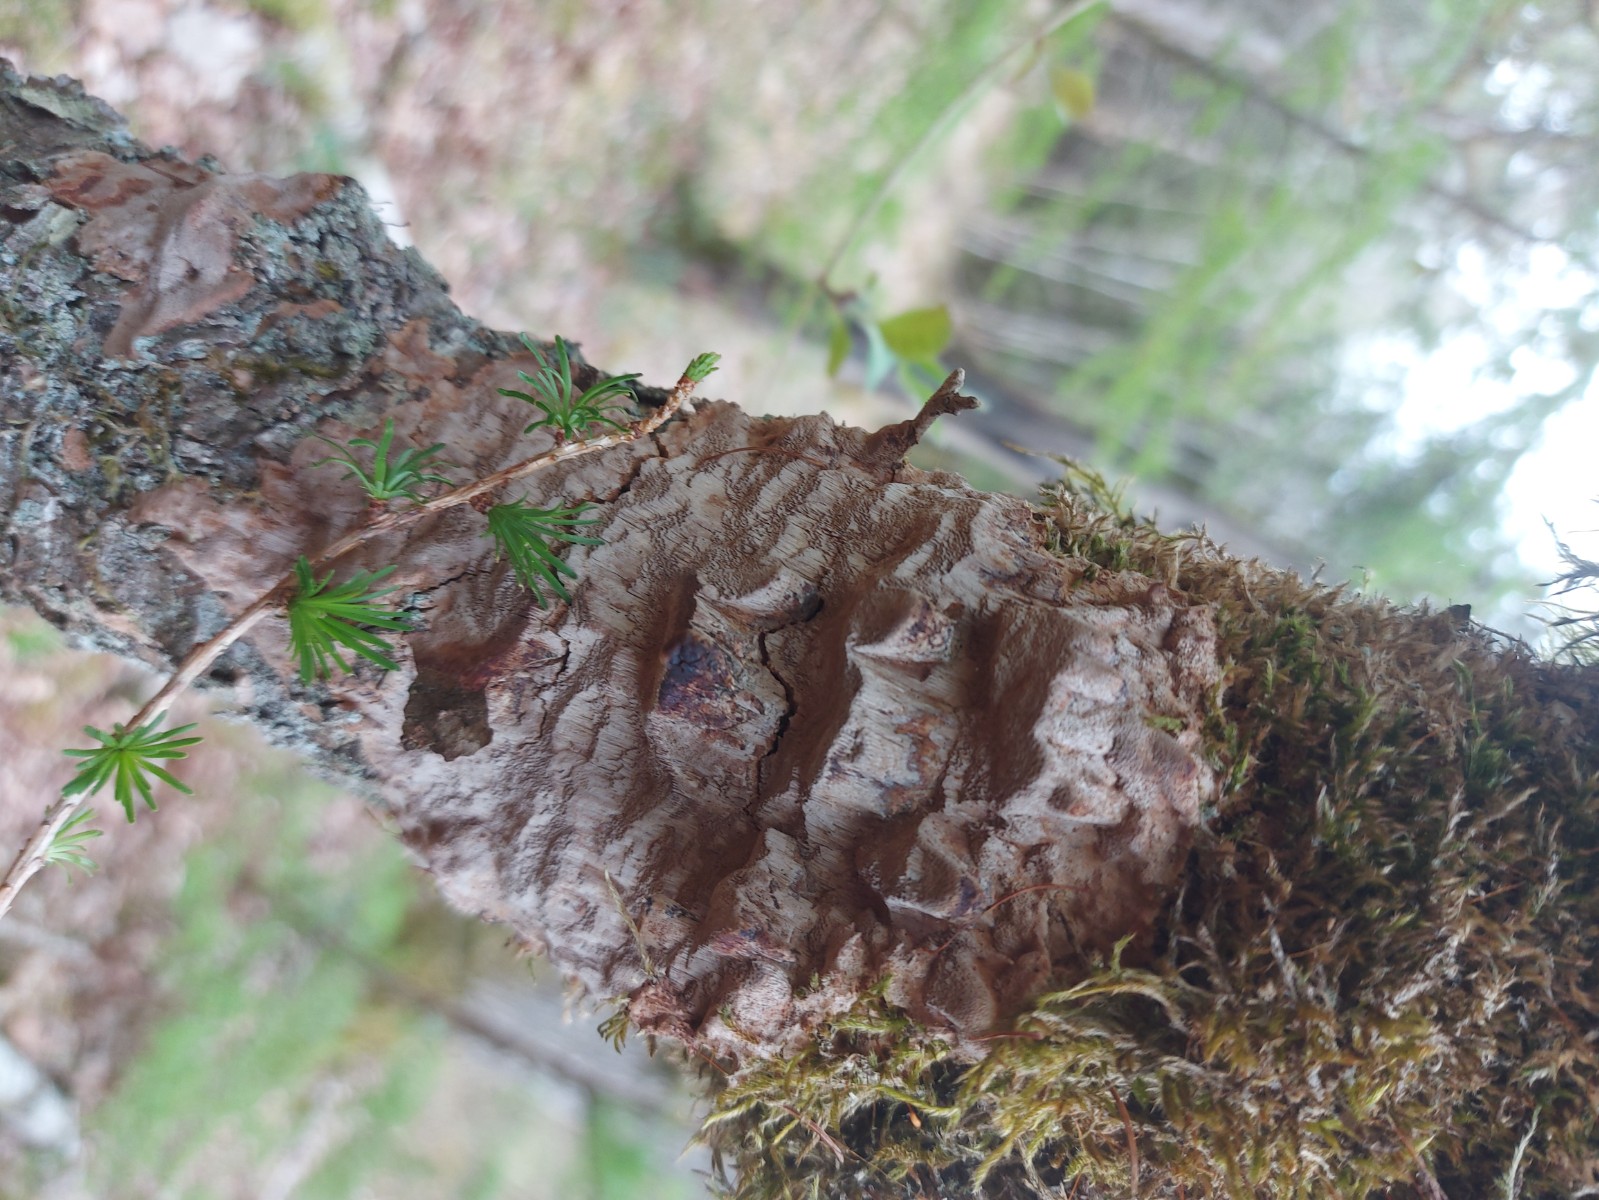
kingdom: Fungi
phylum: Basidiomycota
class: Agaricomycetes
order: Hymenochaetales
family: Hymenochaetaceae
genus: Fuscoporia
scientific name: Fuscoporia ferrea
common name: skorpe-ildporesvamp
